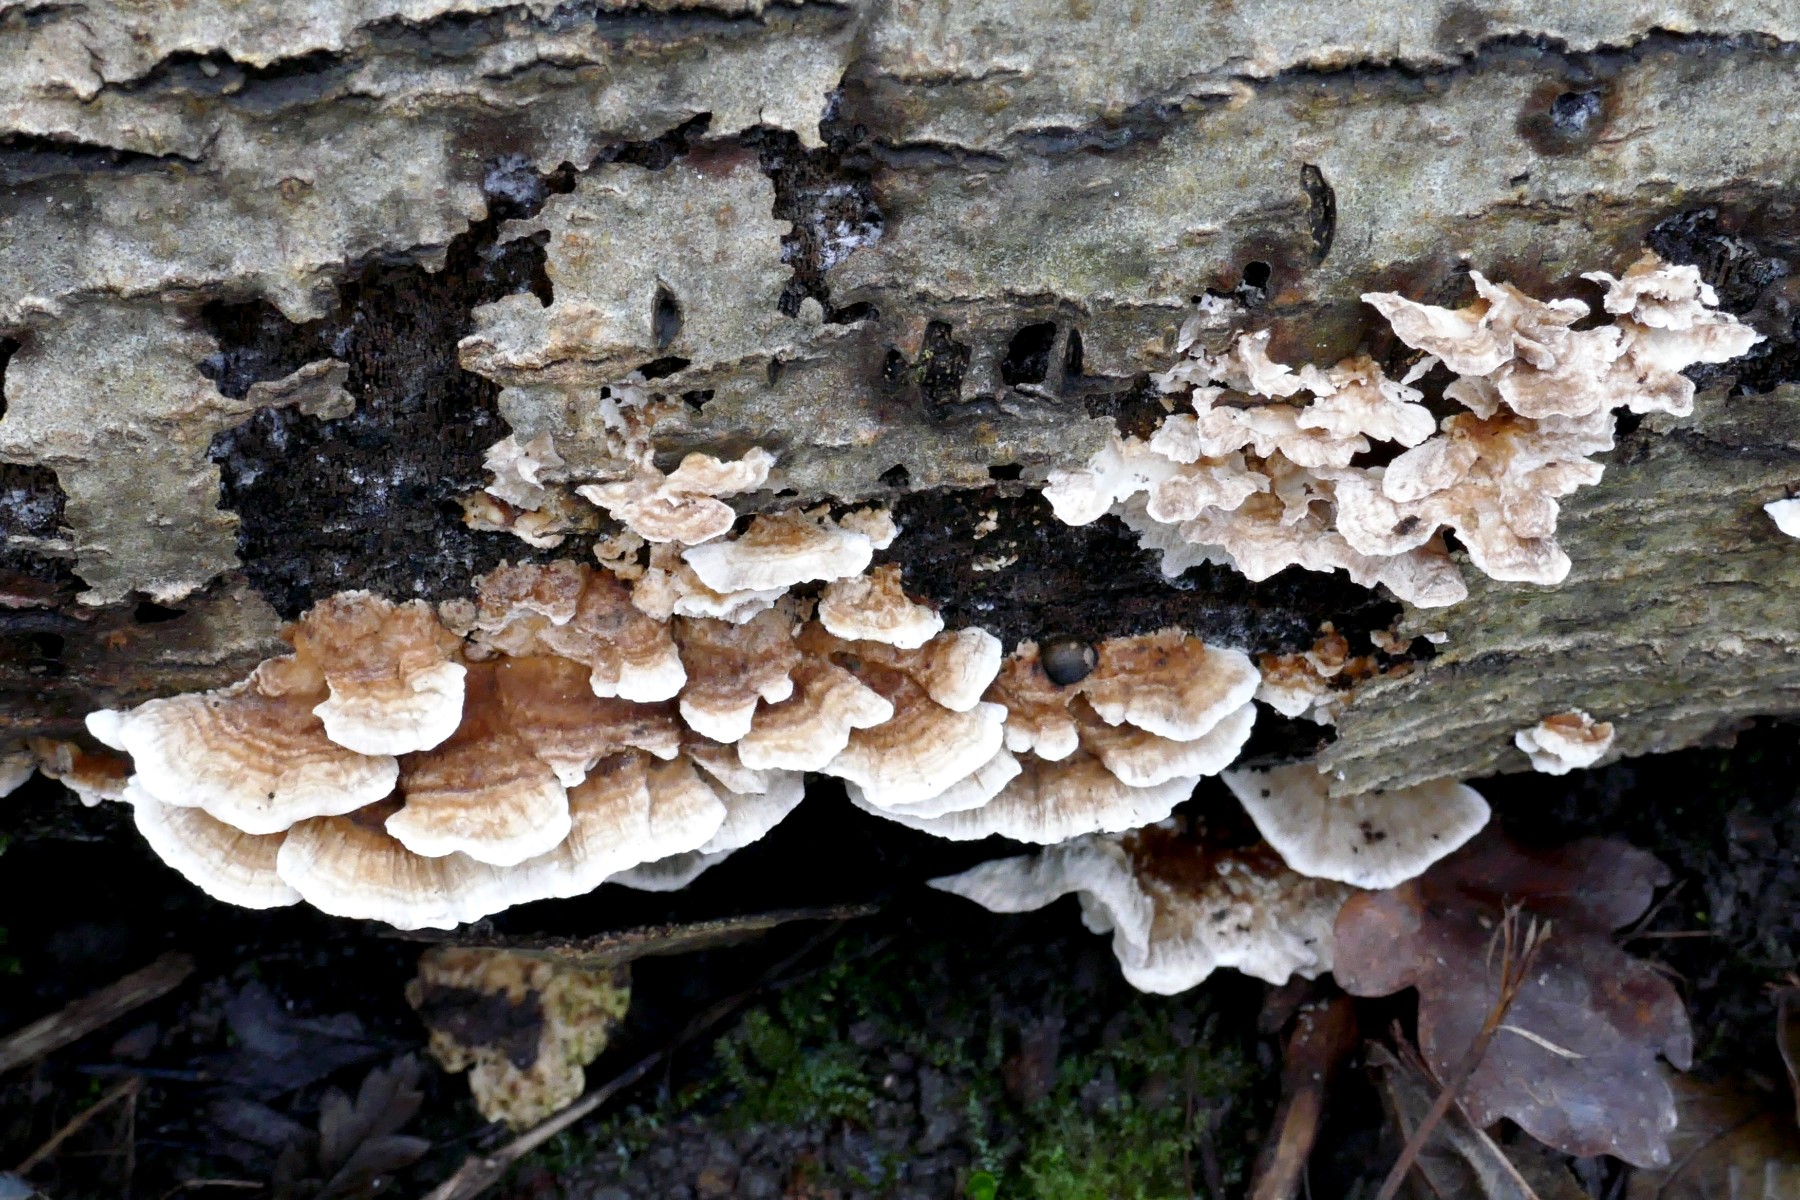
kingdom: Fungi
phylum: Basidiomycota
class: Agaricomycetes
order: Polyporales
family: Polyporaceae
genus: Trametes
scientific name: Trametes ochracea
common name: bæltet læderporesvamp
